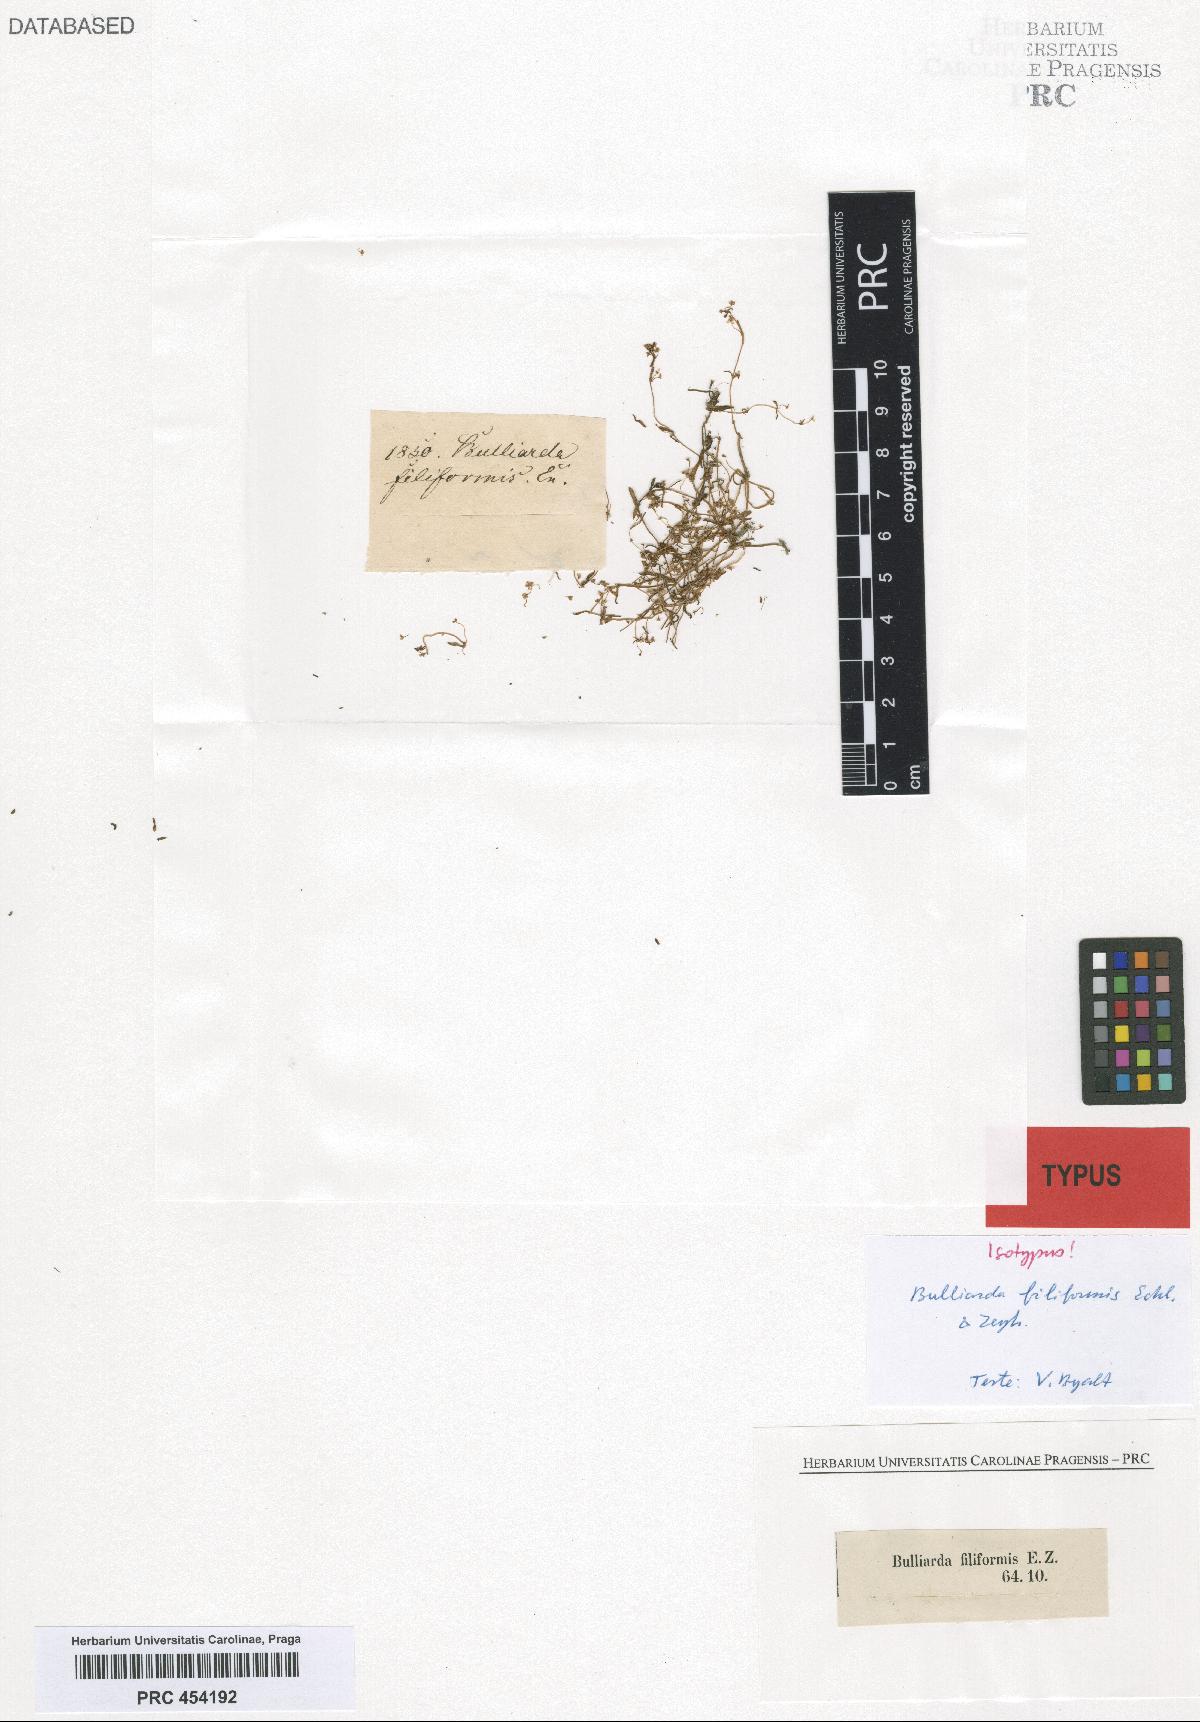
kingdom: Plantae
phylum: Tracheophyta
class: Magnoliopsida
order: Saxifragales
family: Crassulaceae
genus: Crassula
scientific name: Crassula natans
